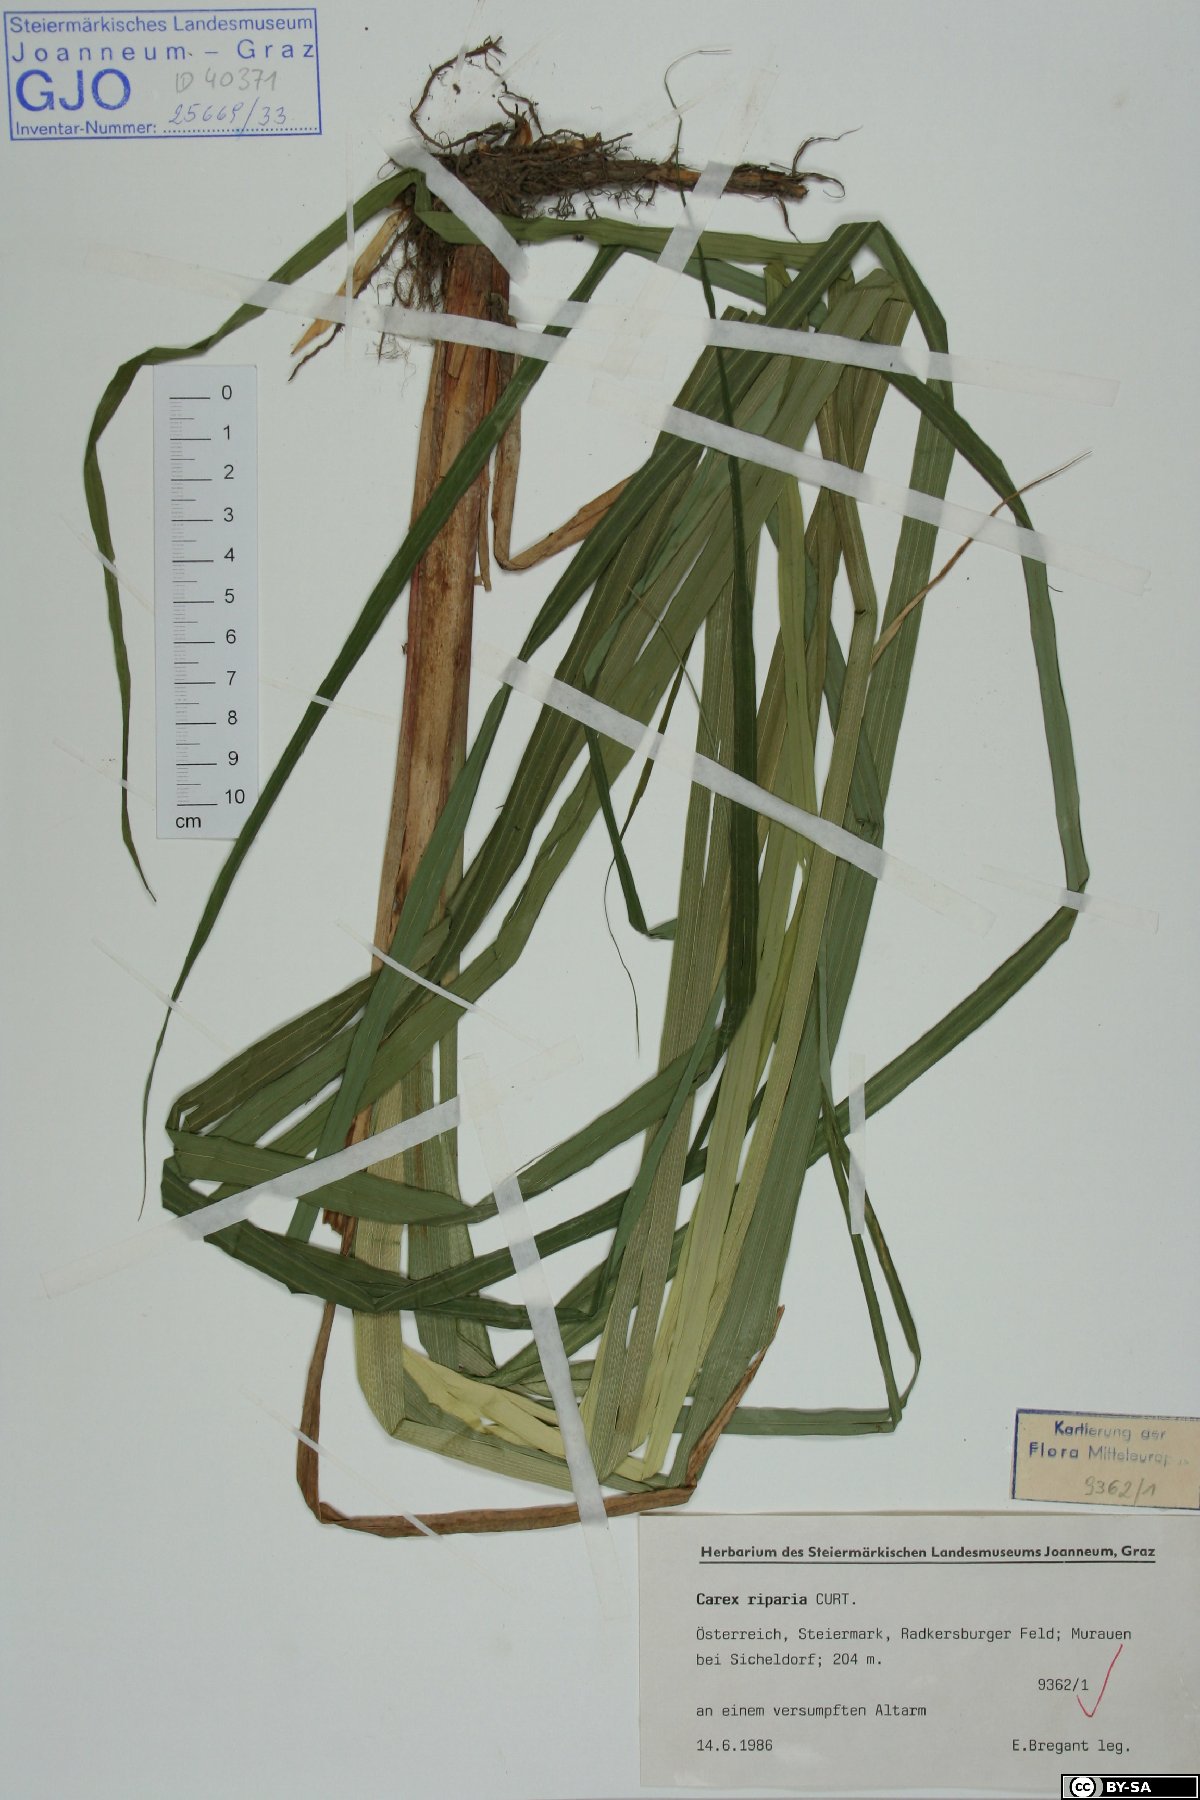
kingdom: Plantae
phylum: Tracheophyta
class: Liliopsida
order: Poales
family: Cyperaceae
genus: Carex
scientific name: Carex riparia
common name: Greater pond-sedge
